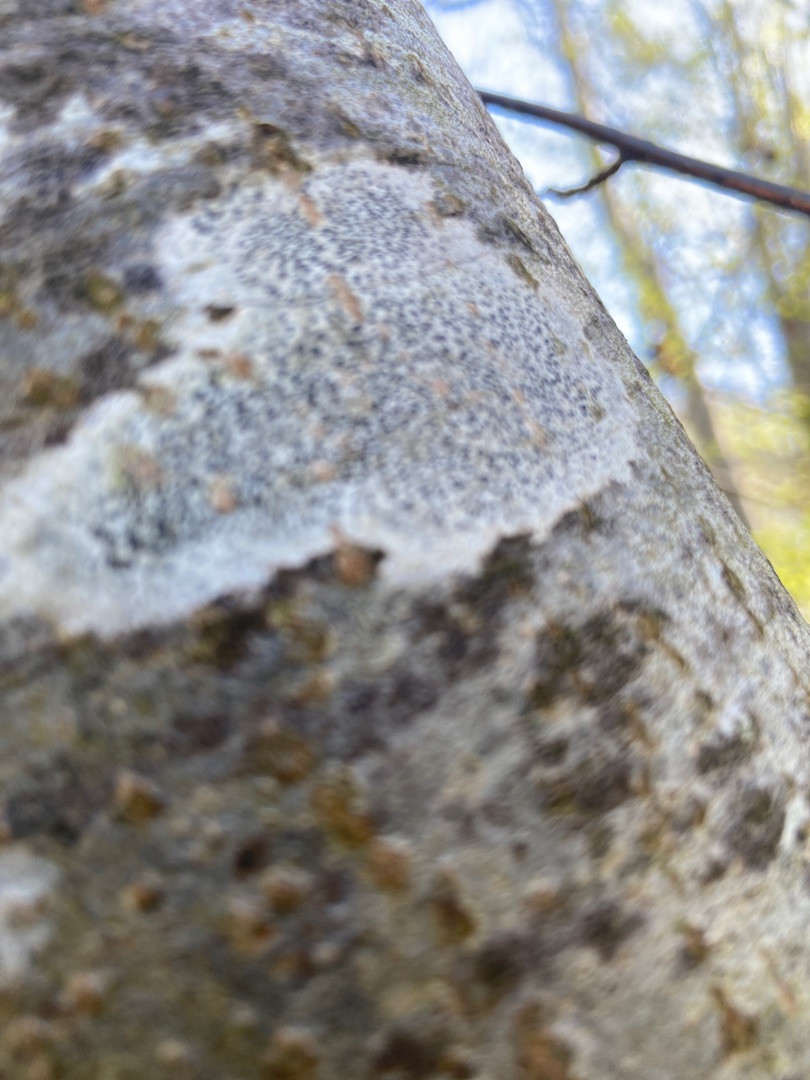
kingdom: Fungi
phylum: Ascomycota
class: Arthoniomycetes
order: Arthoniales
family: Arthoniaceae
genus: Arthonia
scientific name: Arthonia radiata
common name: Stjerne-pletlav
